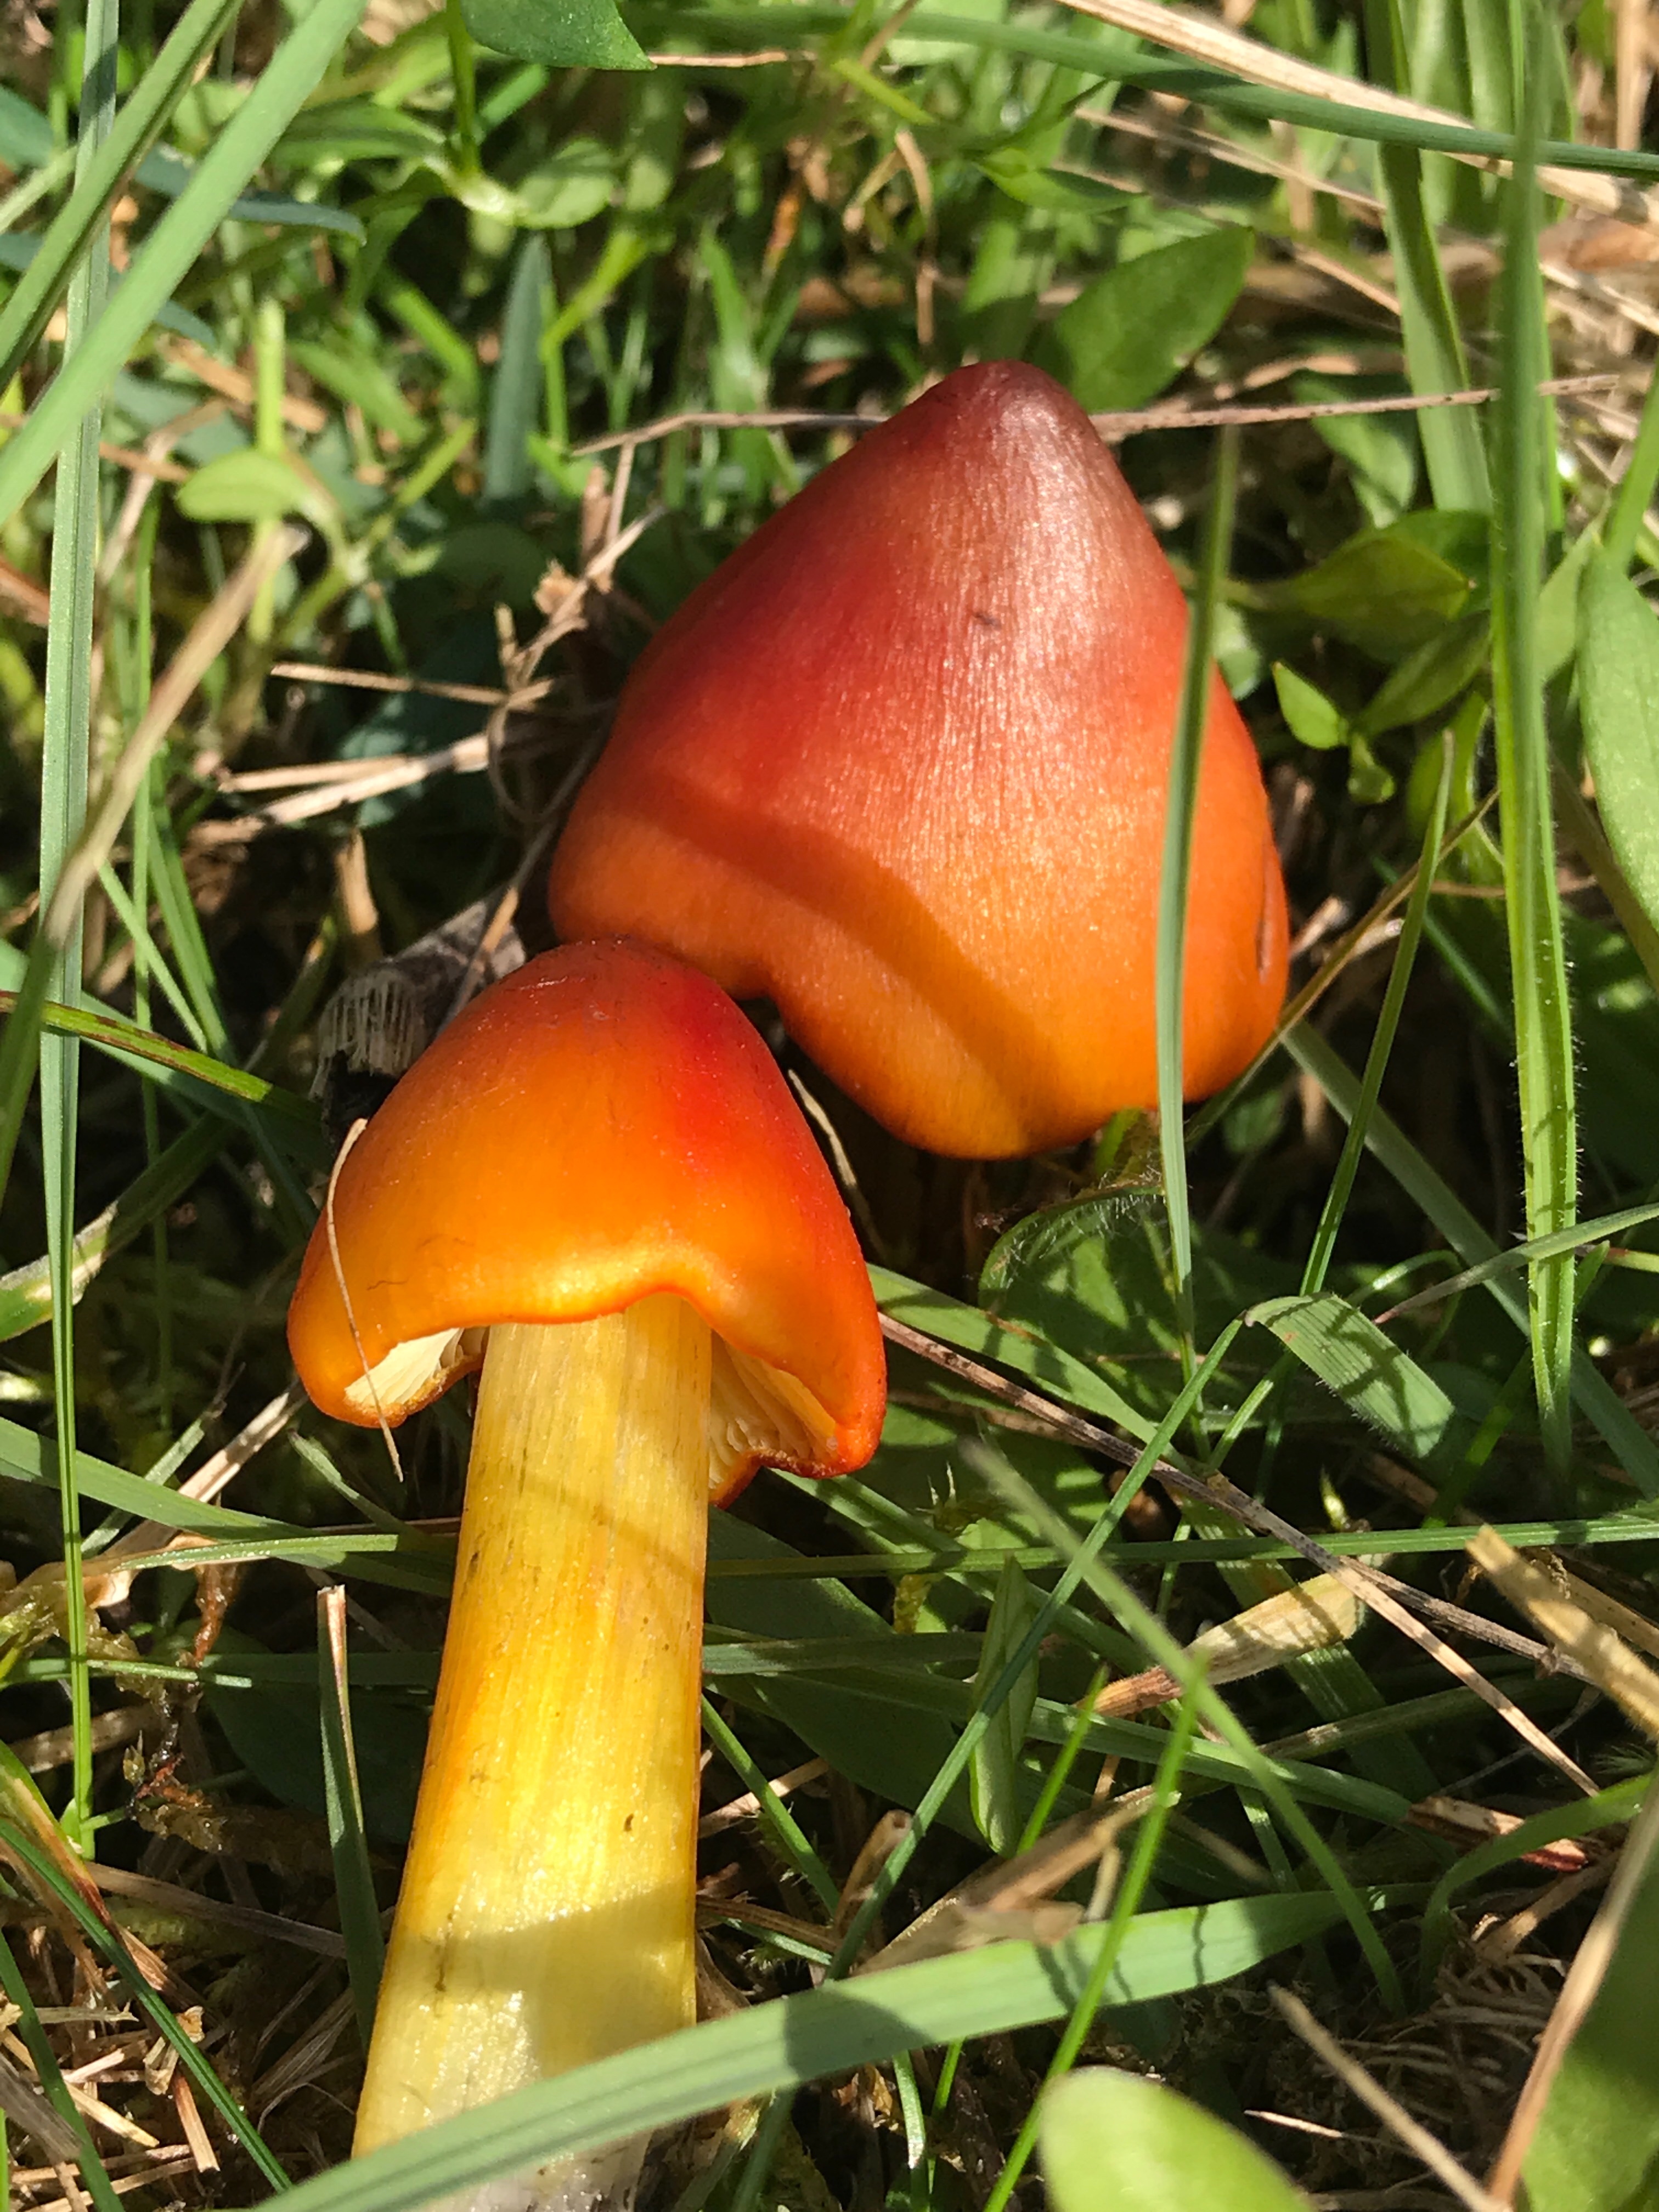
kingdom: Fungi
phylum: Basidiomycota
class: Agaricomycetes
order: Agaricales
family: Hygrophoraceae
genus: Hygrocybe
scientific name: Hygrocybe conica
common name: kegle-vokshat
